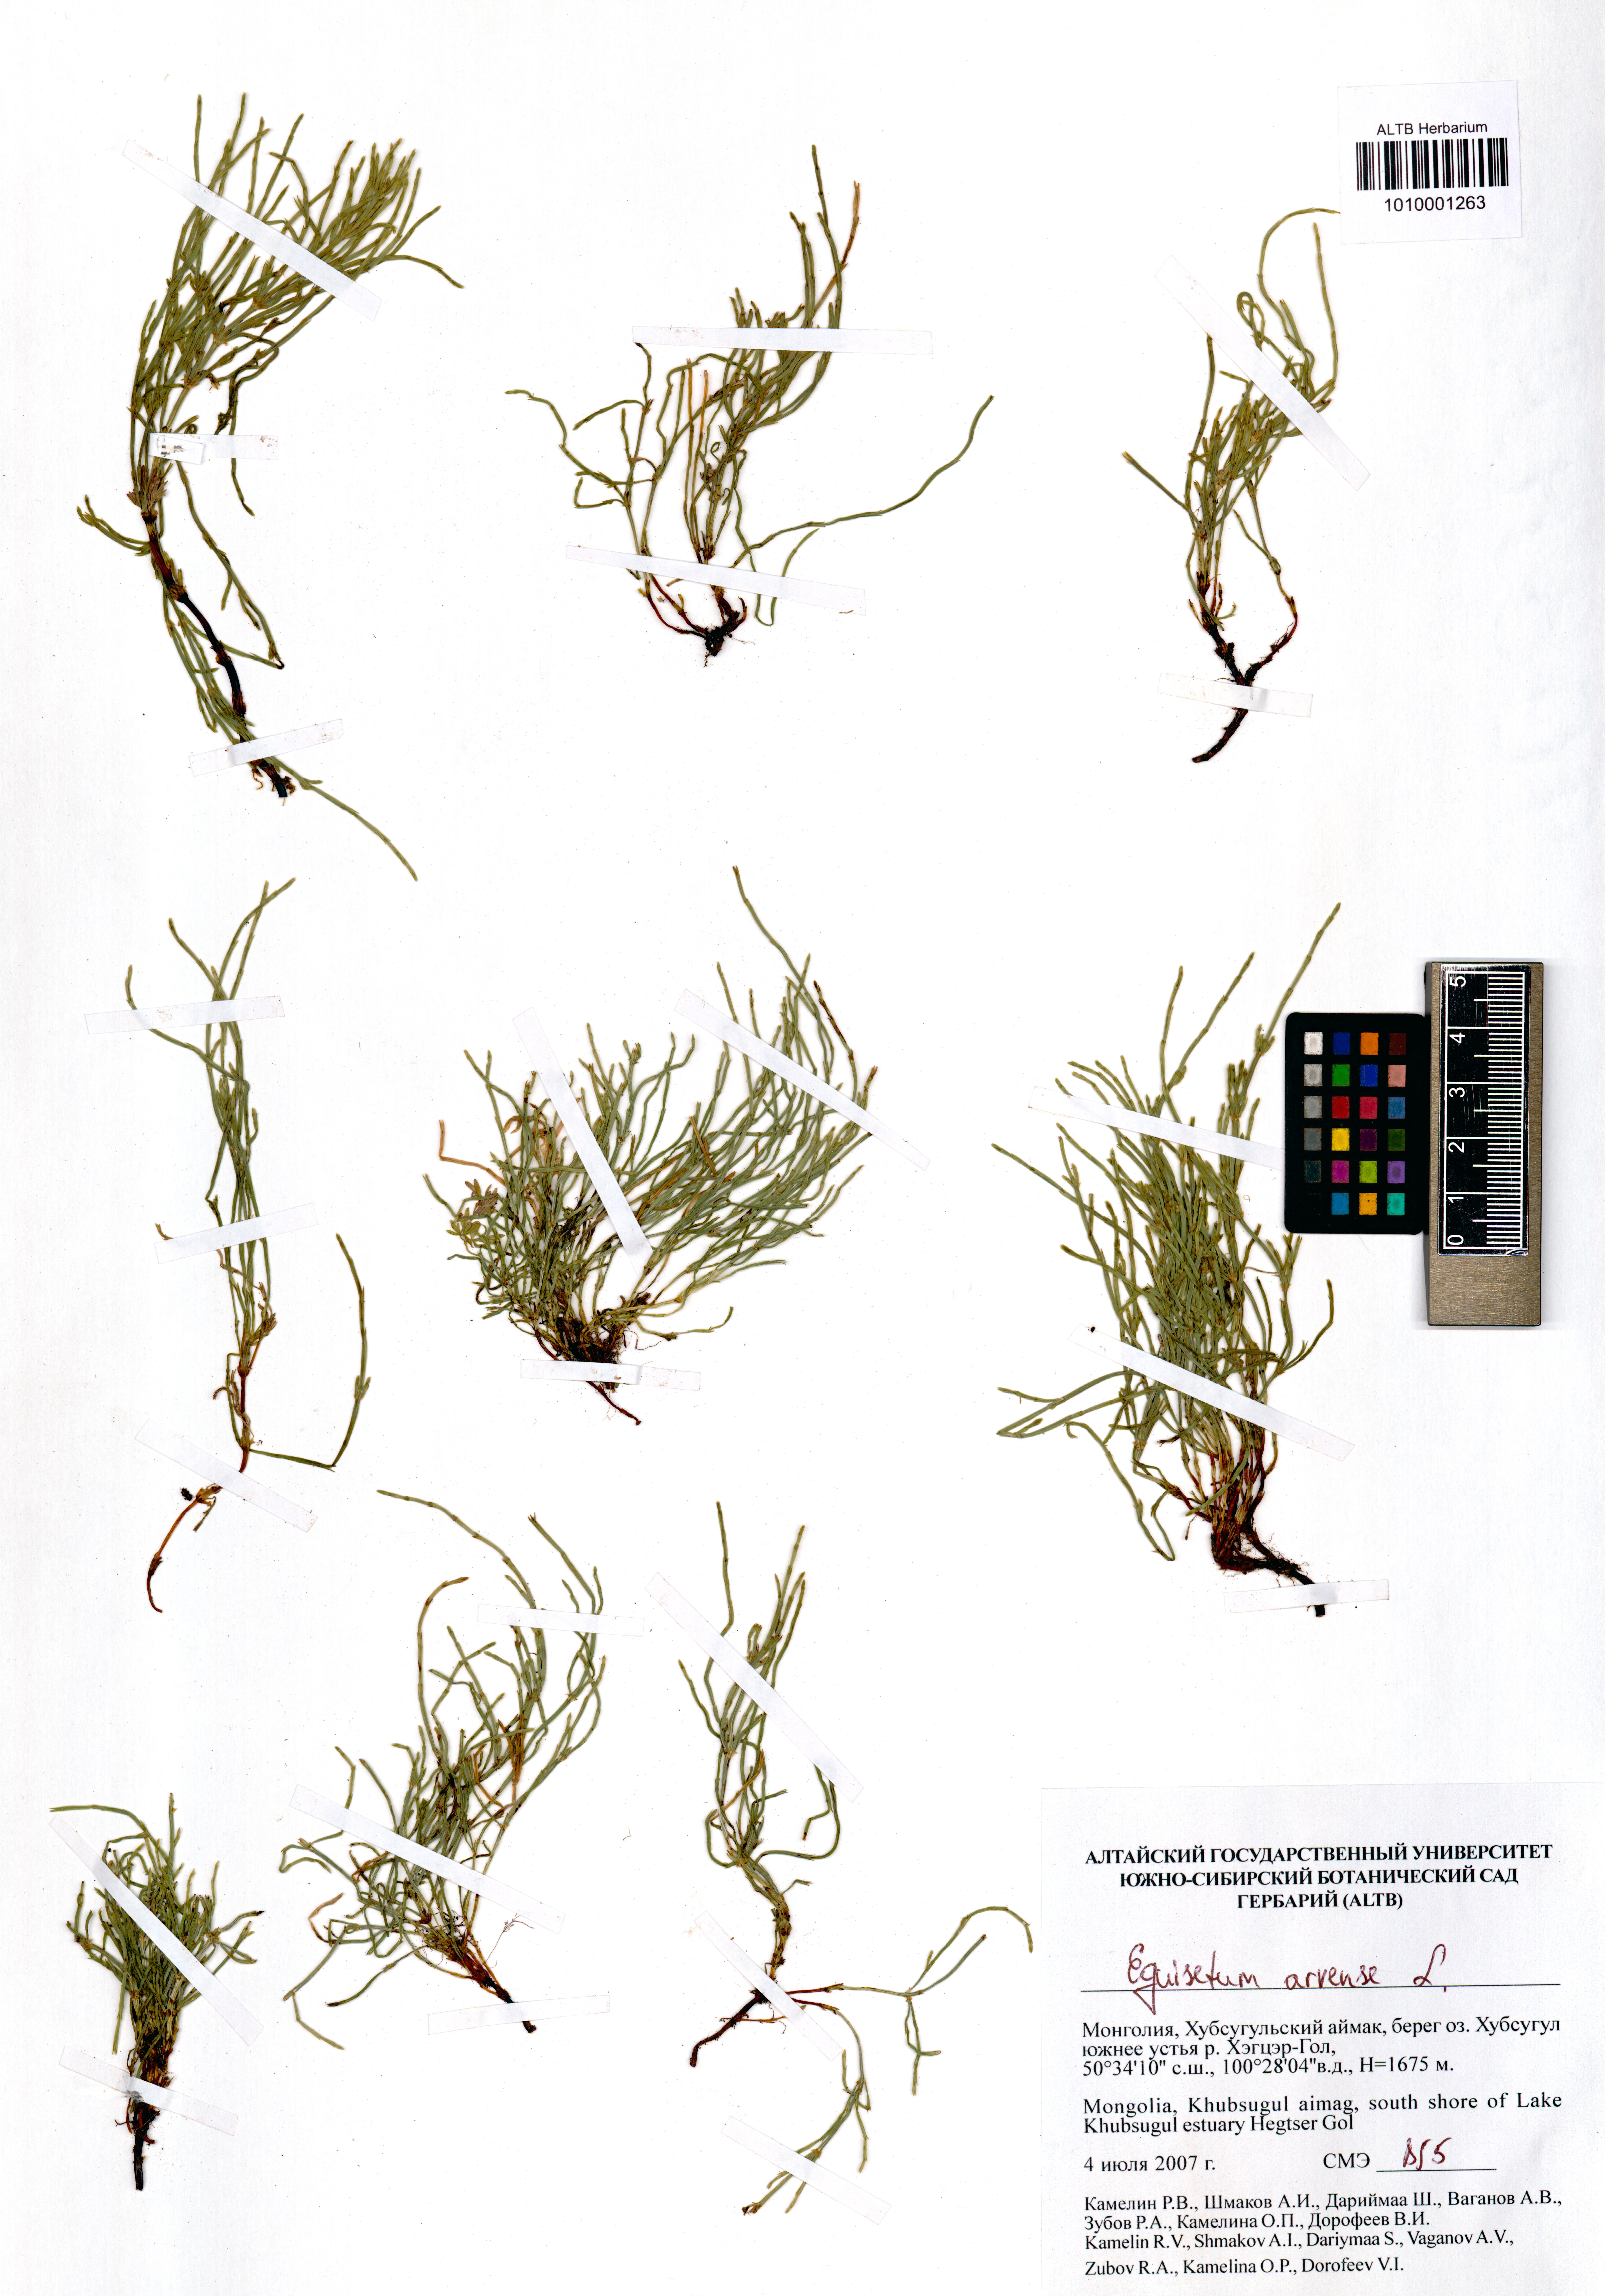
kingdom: Plantae
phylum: Tracheophyta
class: Polypodiopsida
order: Equisetales
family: Equisetaceae
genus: Equisetum
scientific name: Equisetum arvense
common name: Field horsetail
